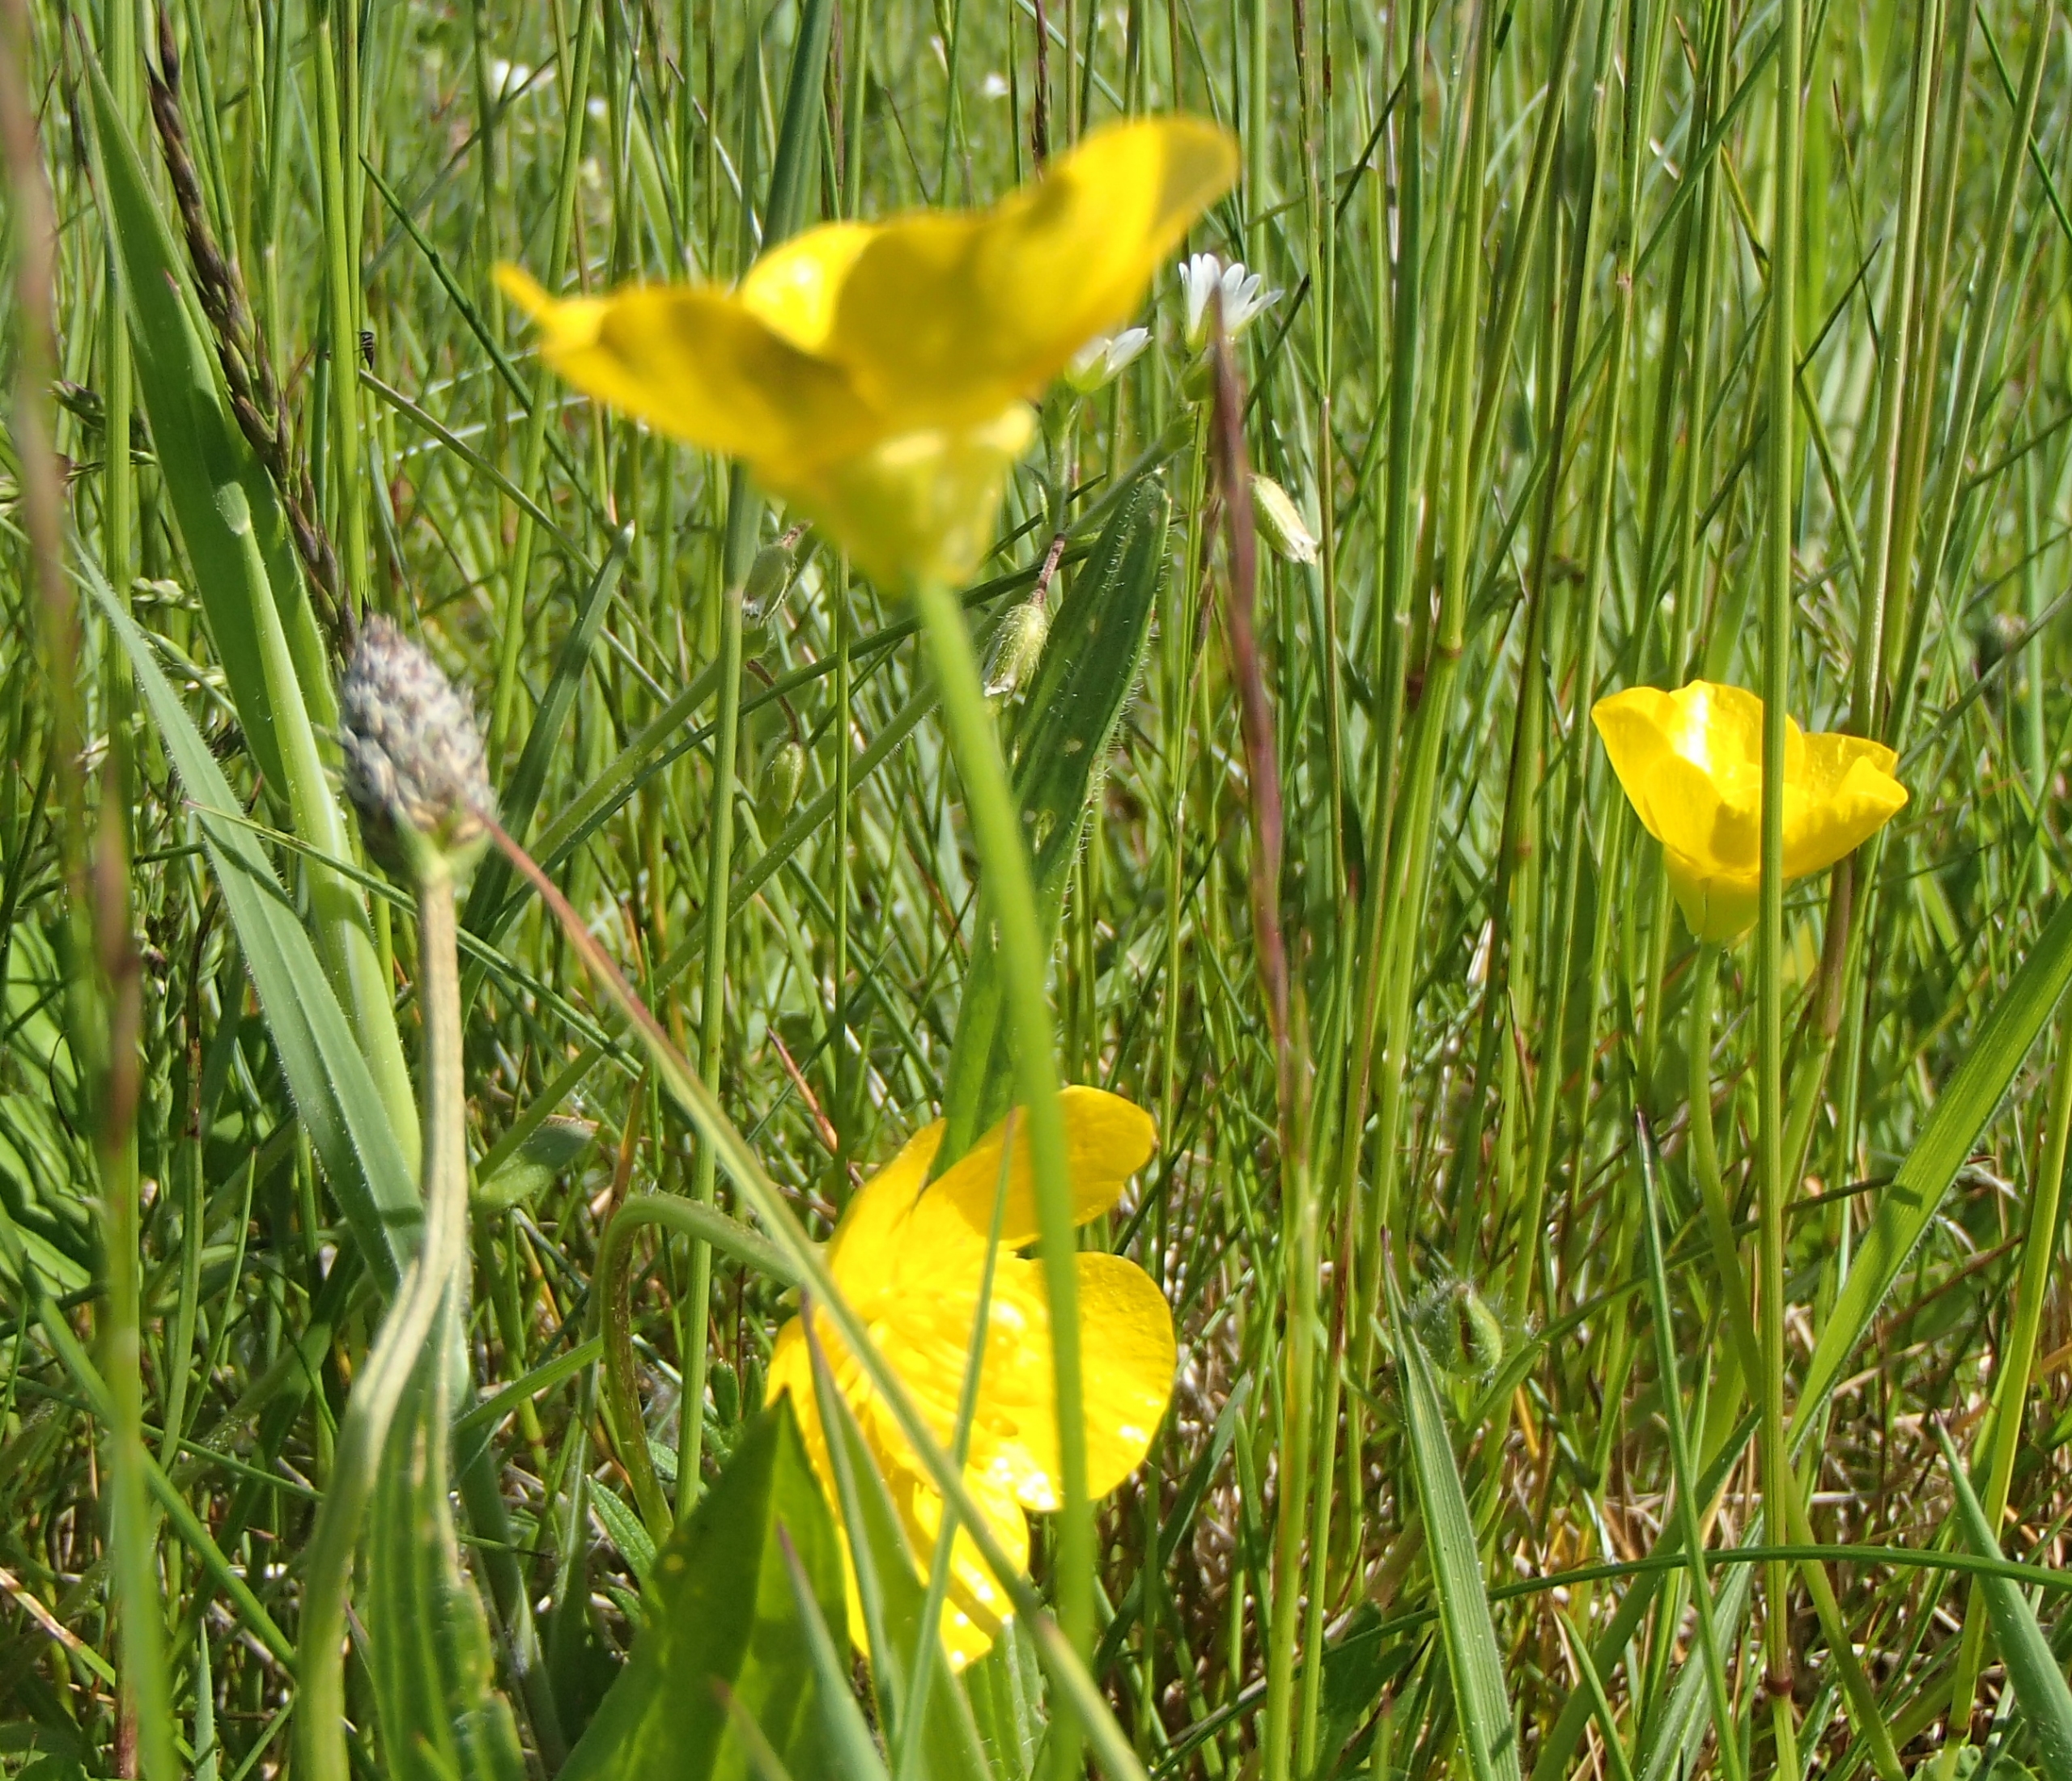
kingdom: Plantae
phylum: Tracheophyta
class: Magnoliopsida
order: Ranunculales
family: Ranunculaceae
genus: Ranunculus
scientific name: Ranunculus bulbosus
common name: Knold-ranunkel
